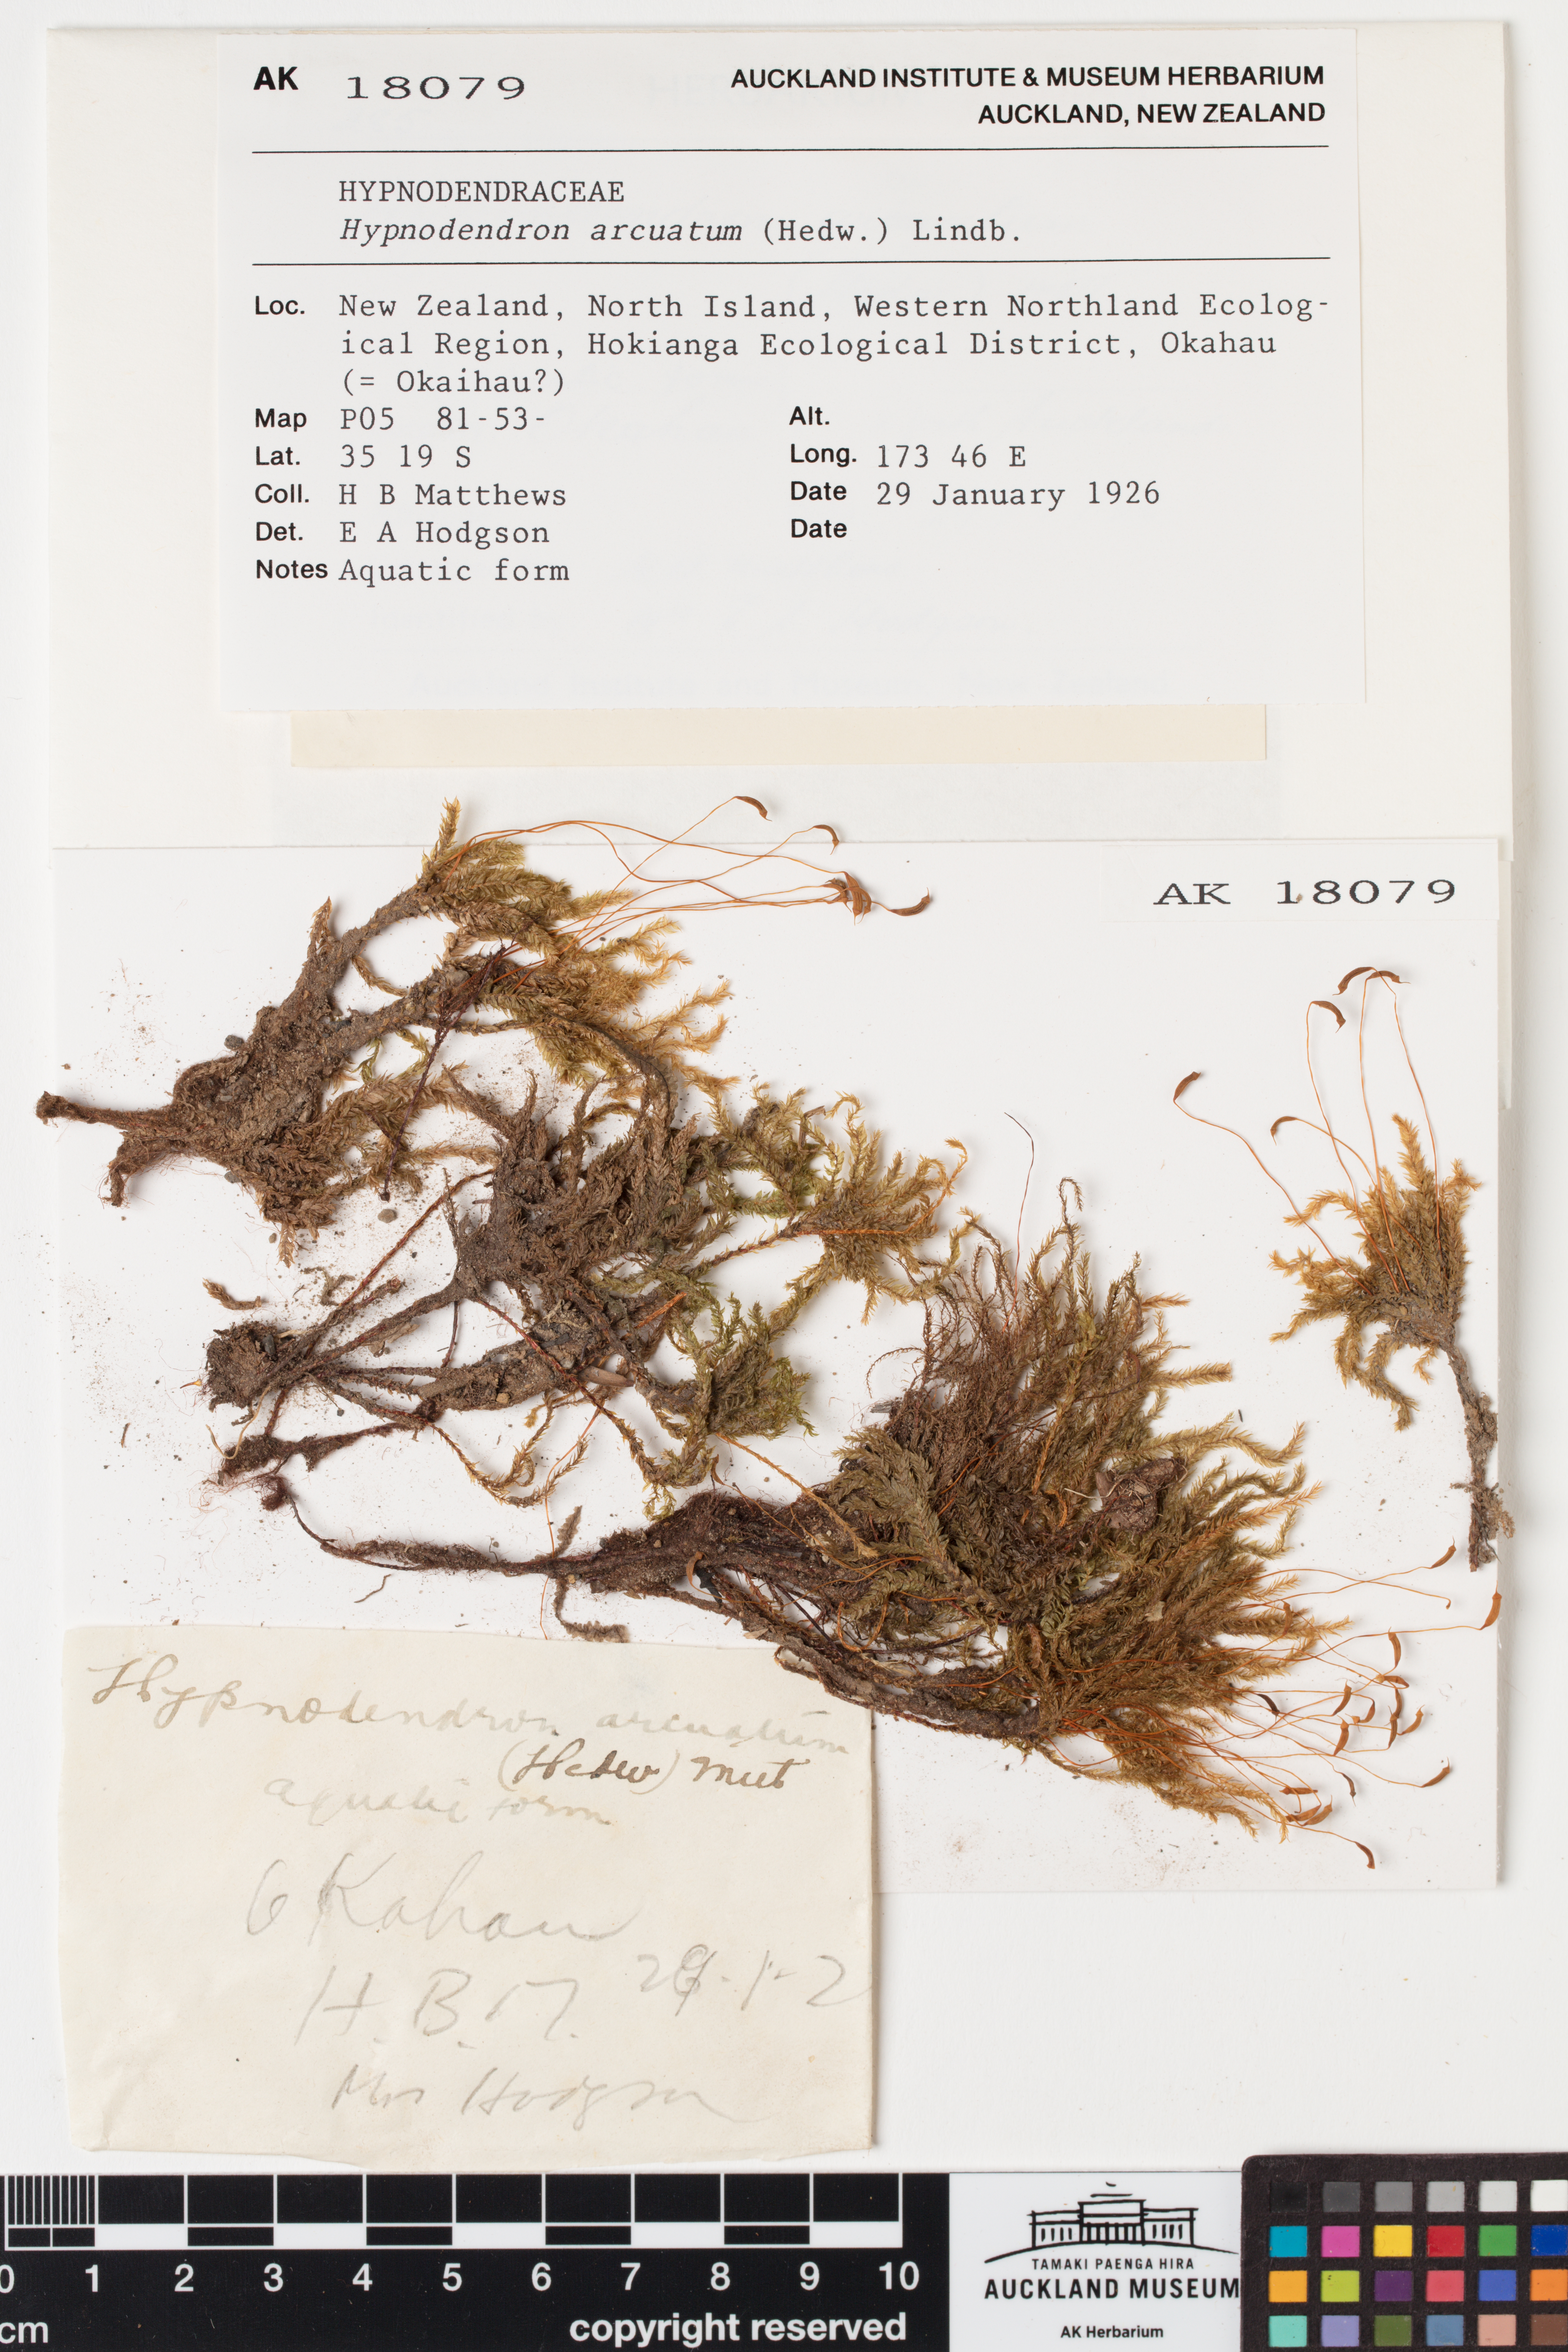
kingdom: Plantae
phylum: Bryophyta
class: Bryopsida
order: Hypnodendrales
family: Spiridentaceae
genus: Hypnodendron
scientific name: Hypnodendron arcuatum
